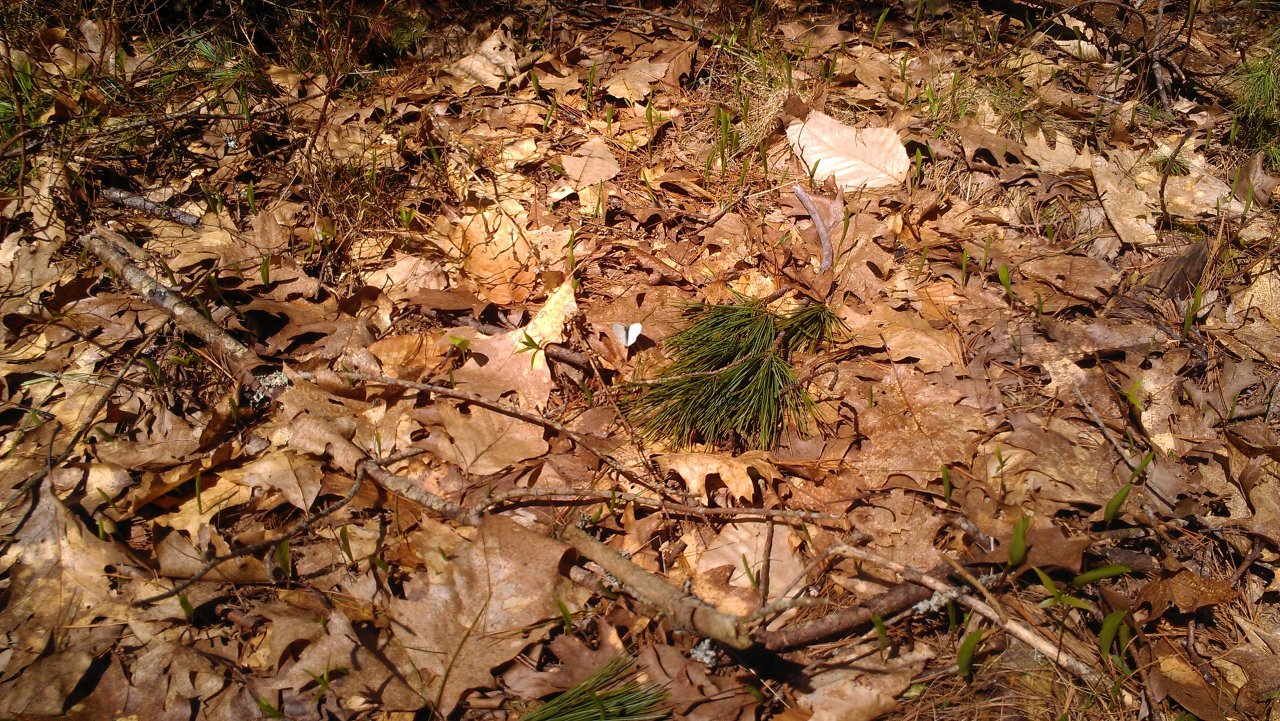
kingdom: Animalia
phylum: Arthropoda
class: Insecta
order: Lepidoptera
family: Pieridae
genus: Pieris
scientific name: Pieris oleracea
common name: Mustard White
